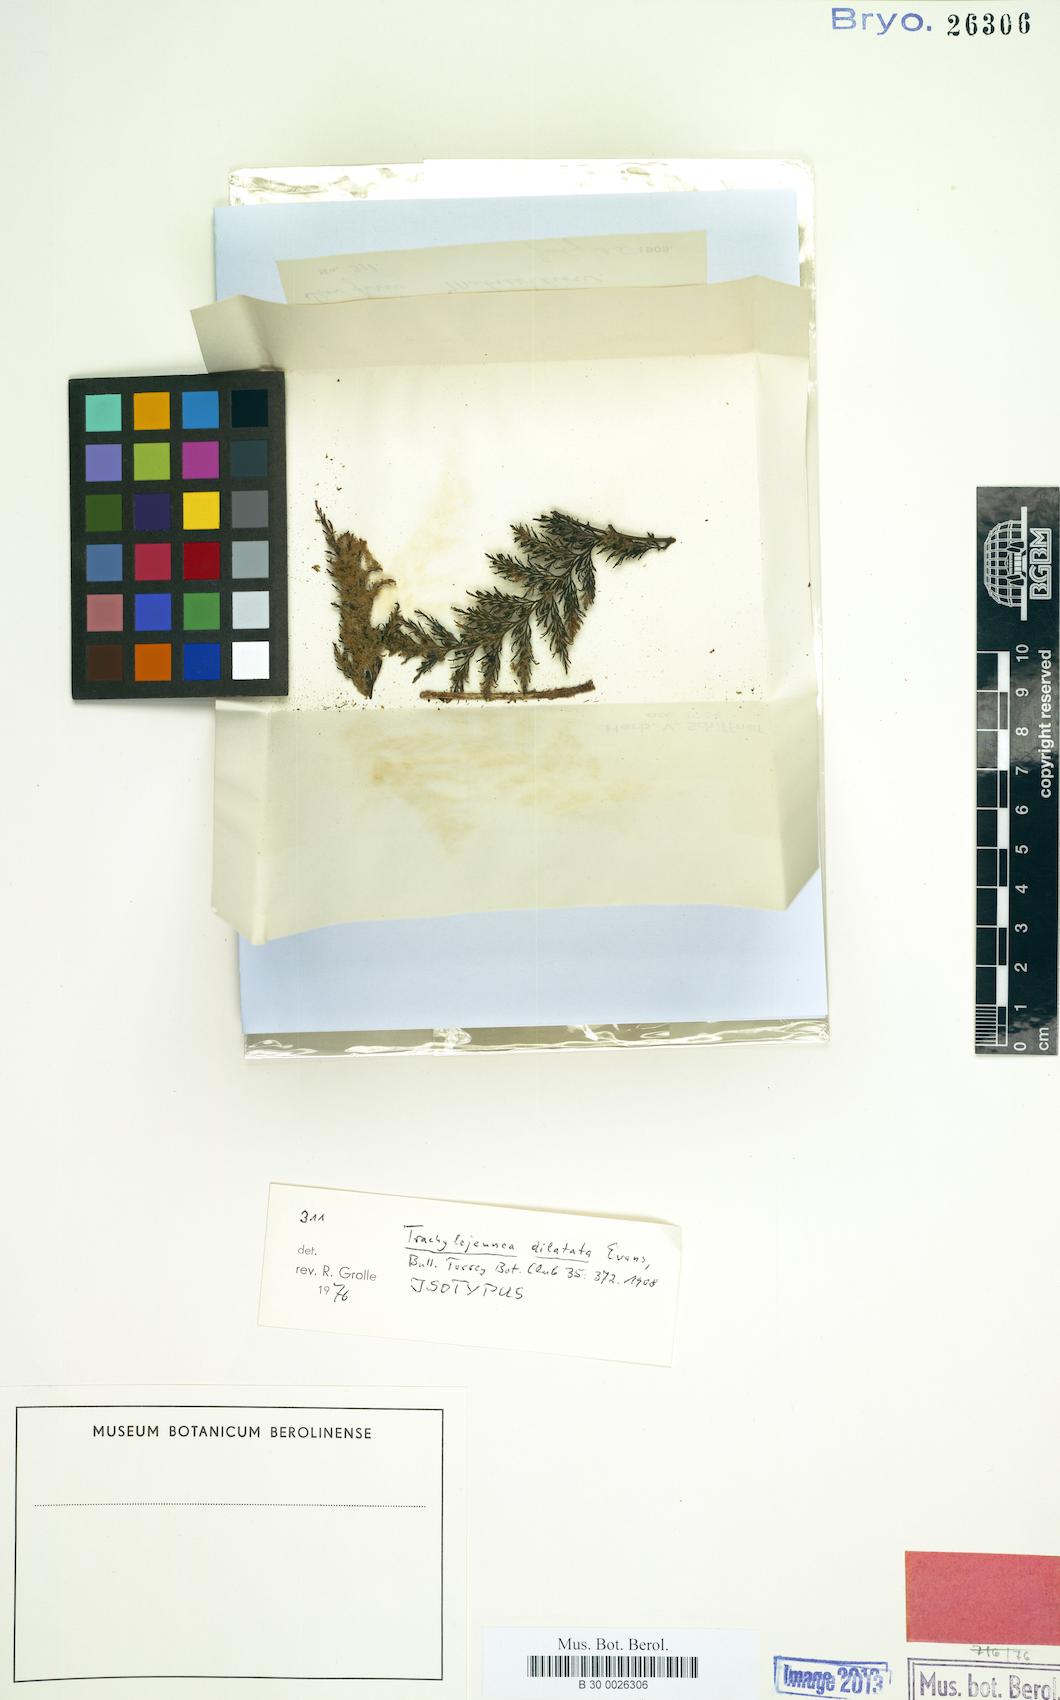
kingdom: Plantae
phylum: Marchantiophyta
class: Jungermanniopsida
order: Porellales
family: Lejeuneaceae
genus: Lejeunea
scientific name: Lejeunea subspathulata
